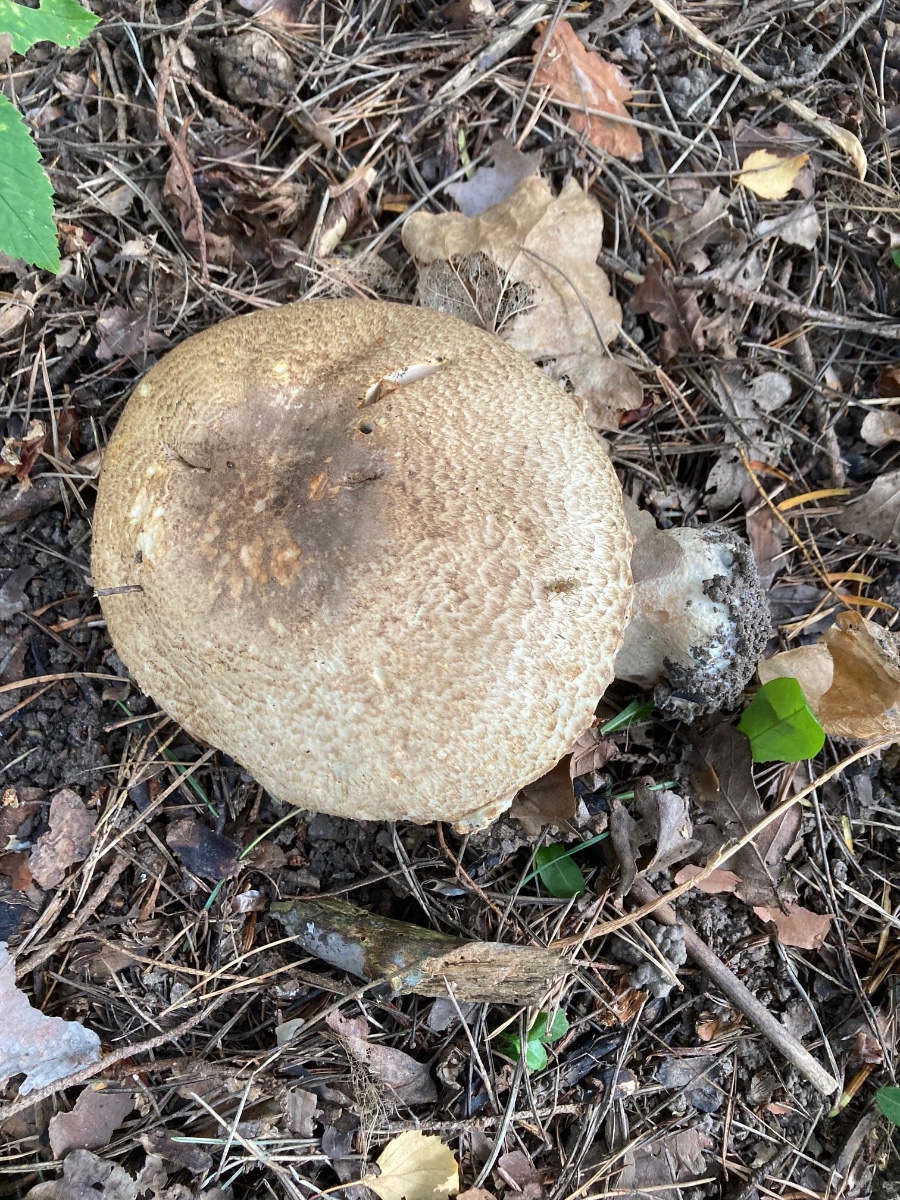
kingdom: Fungi
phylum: Basidiomycota
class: Agaricomycetes
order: Agaricales
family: Agaricaceae
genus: Agaricus
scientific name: Agaricus augustus
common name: prægtig champignon
